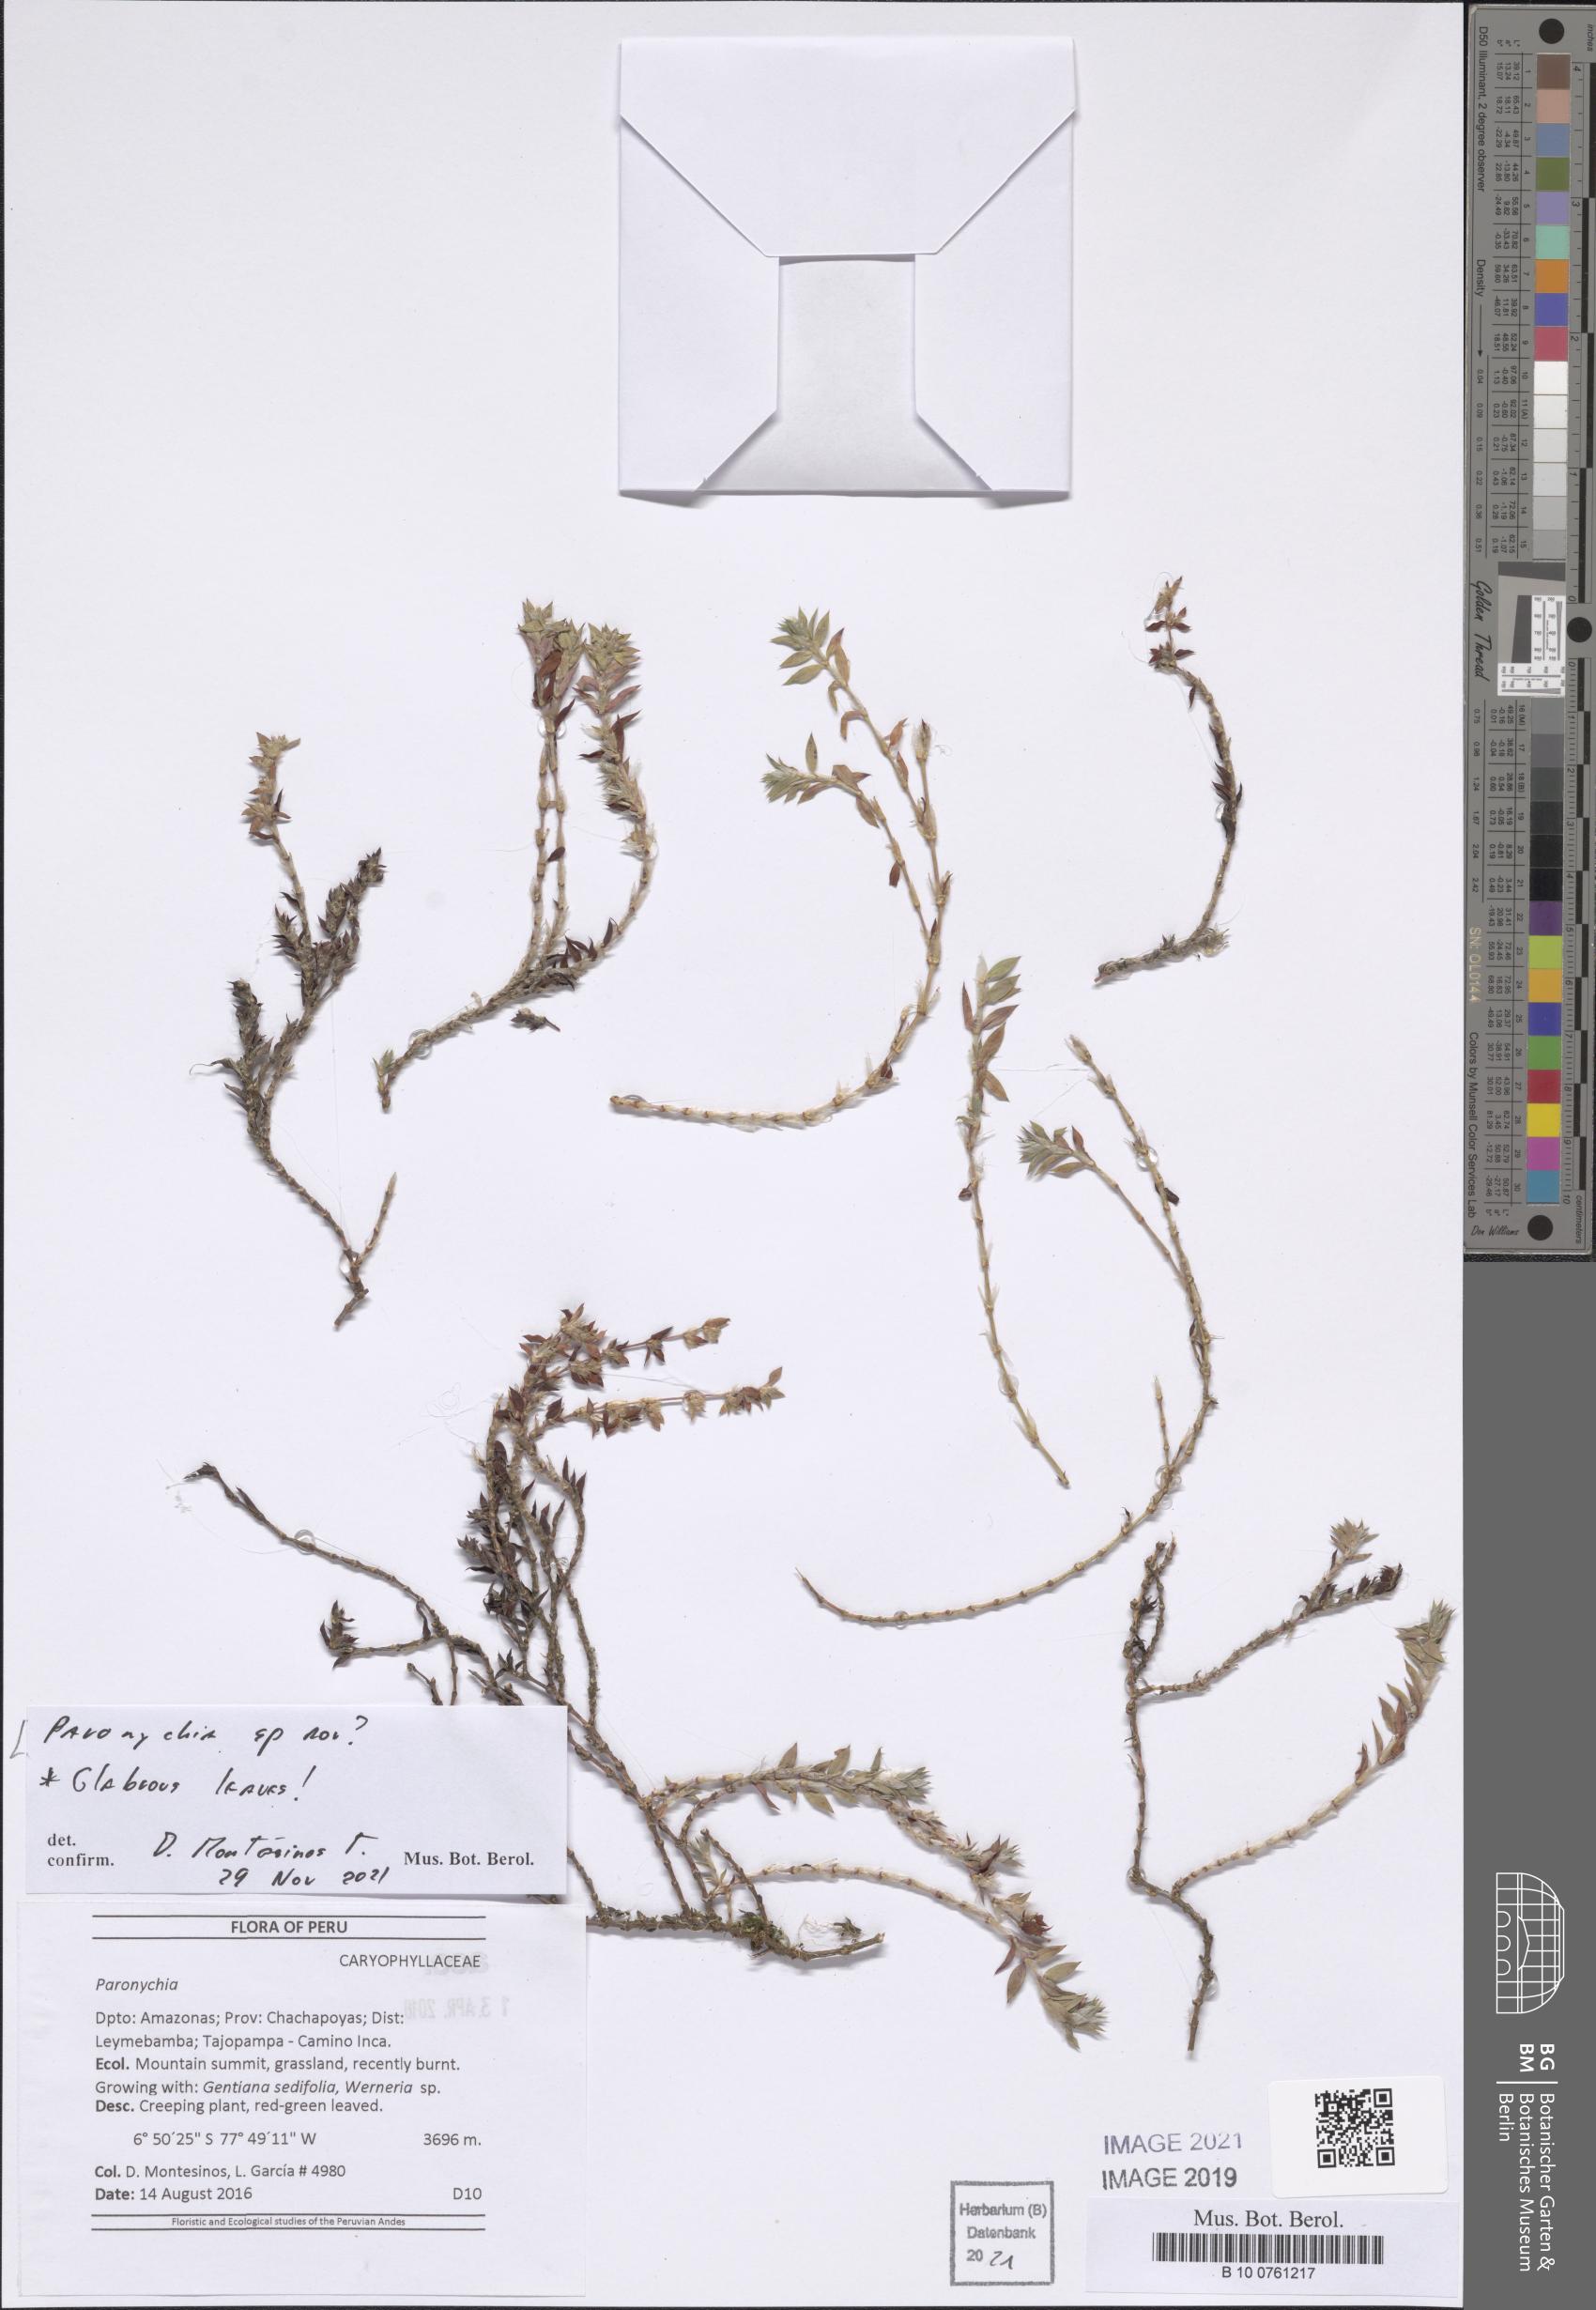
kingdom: Plantae
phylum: Tracheophyta
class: Magnoliopsida
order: Caryophyllales
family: Caryophyllaceae
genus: Paronychia
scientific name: Paronychia
